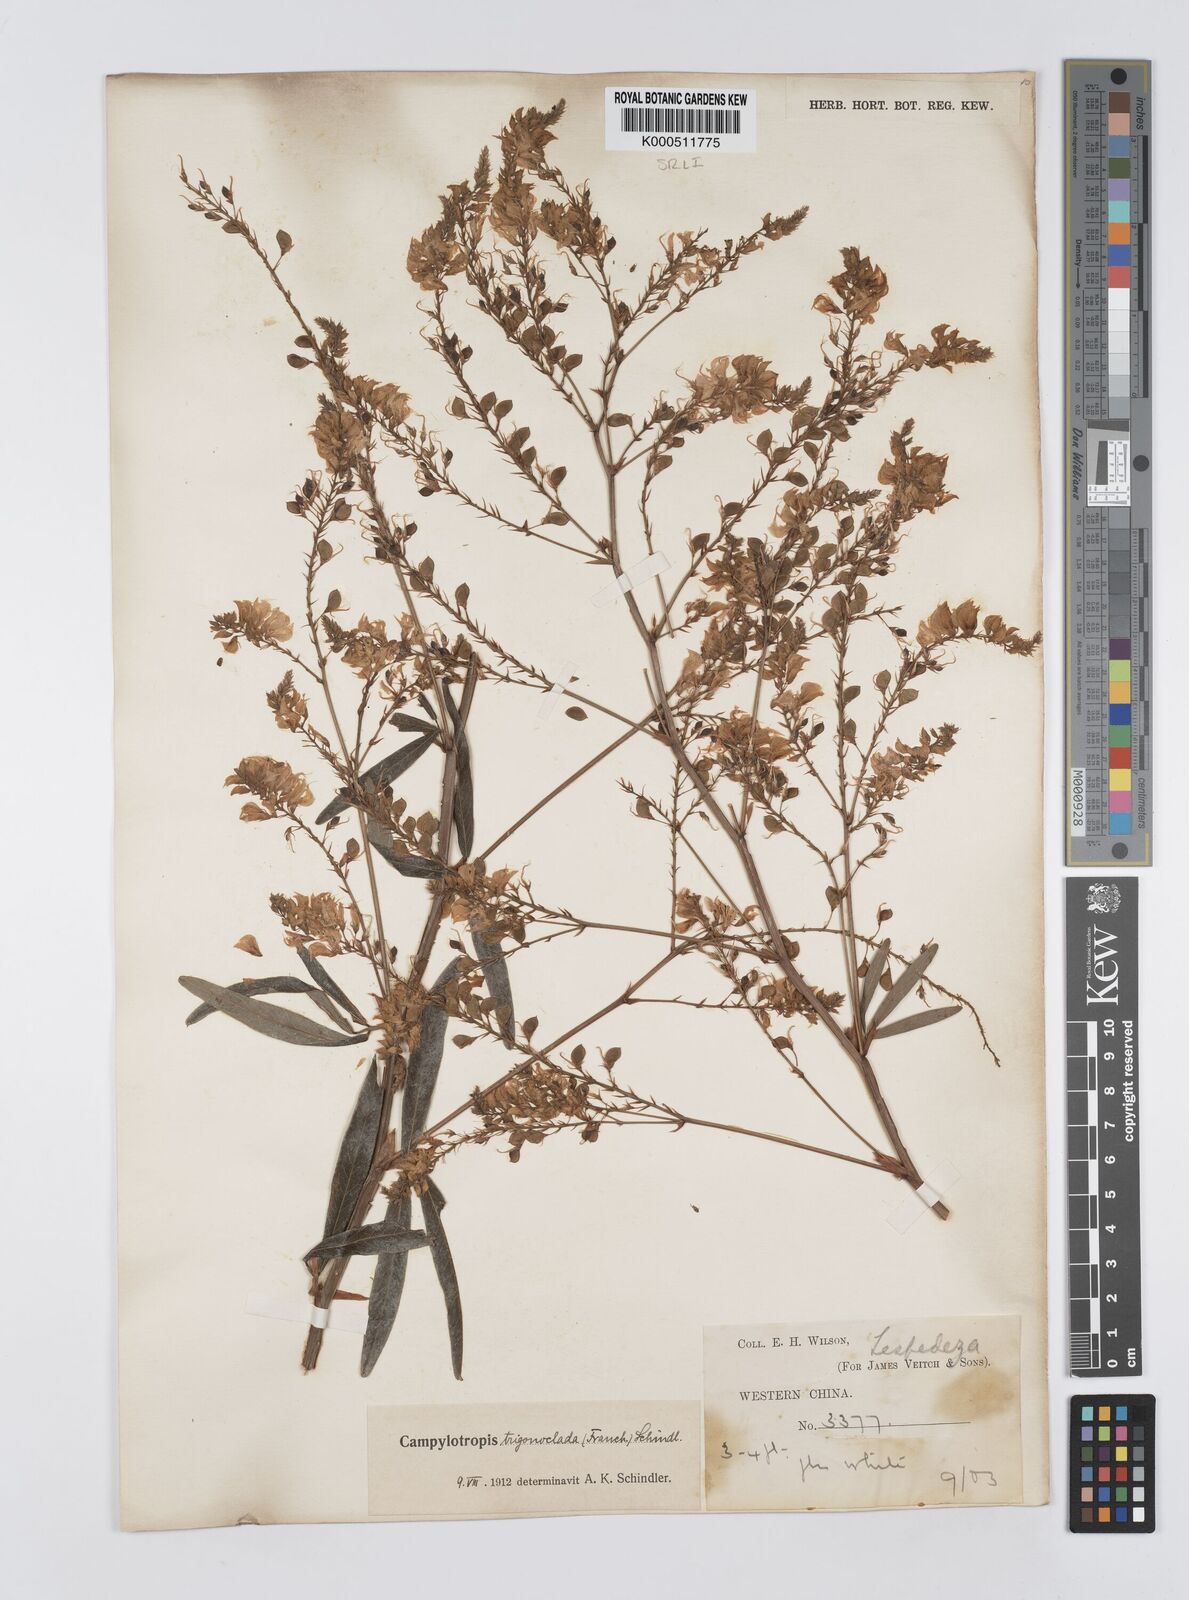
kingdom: Plantae
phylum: Tracheophyta
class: Magnoliopsida
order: Fabales
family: Fabaceae
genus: Campylotropis
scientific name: Campylotropis trigonoclada
